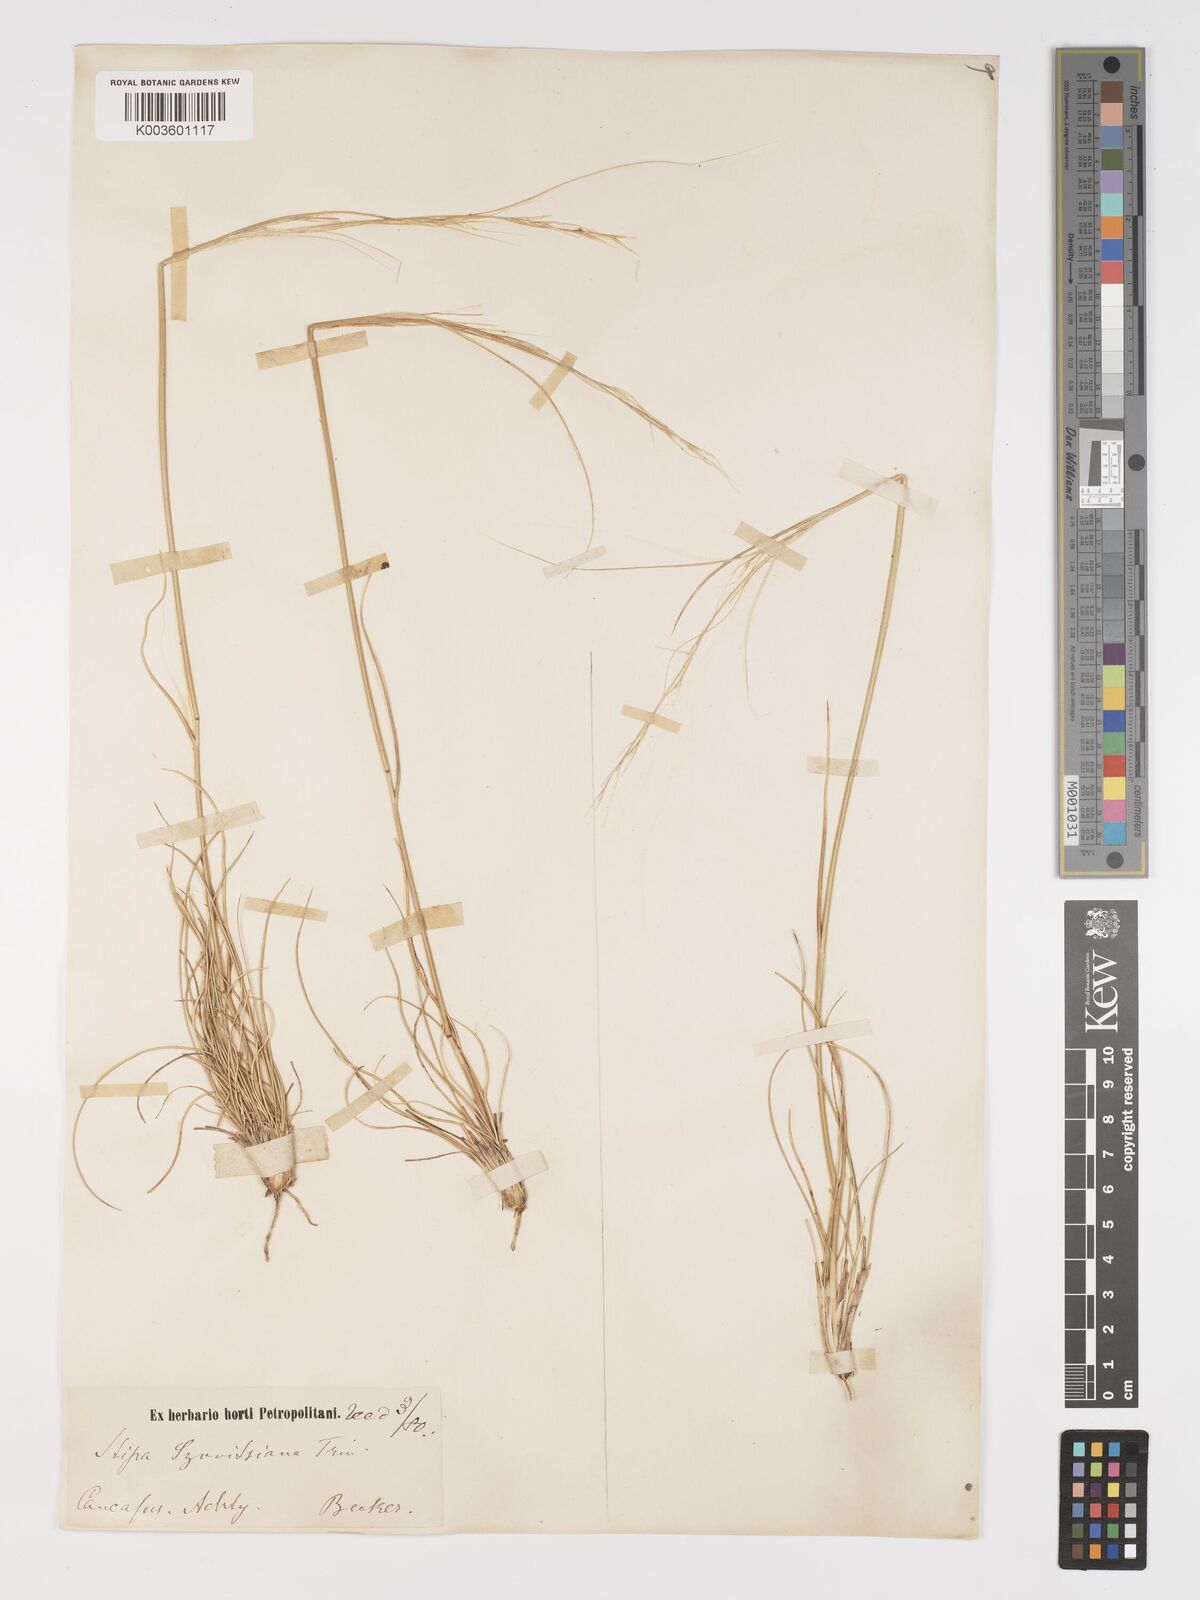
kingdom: Plantae
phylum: Tracheophyta
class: Liliopsida
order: Poales
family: Poaceae
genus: Stipa
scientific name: Stipa arabica
